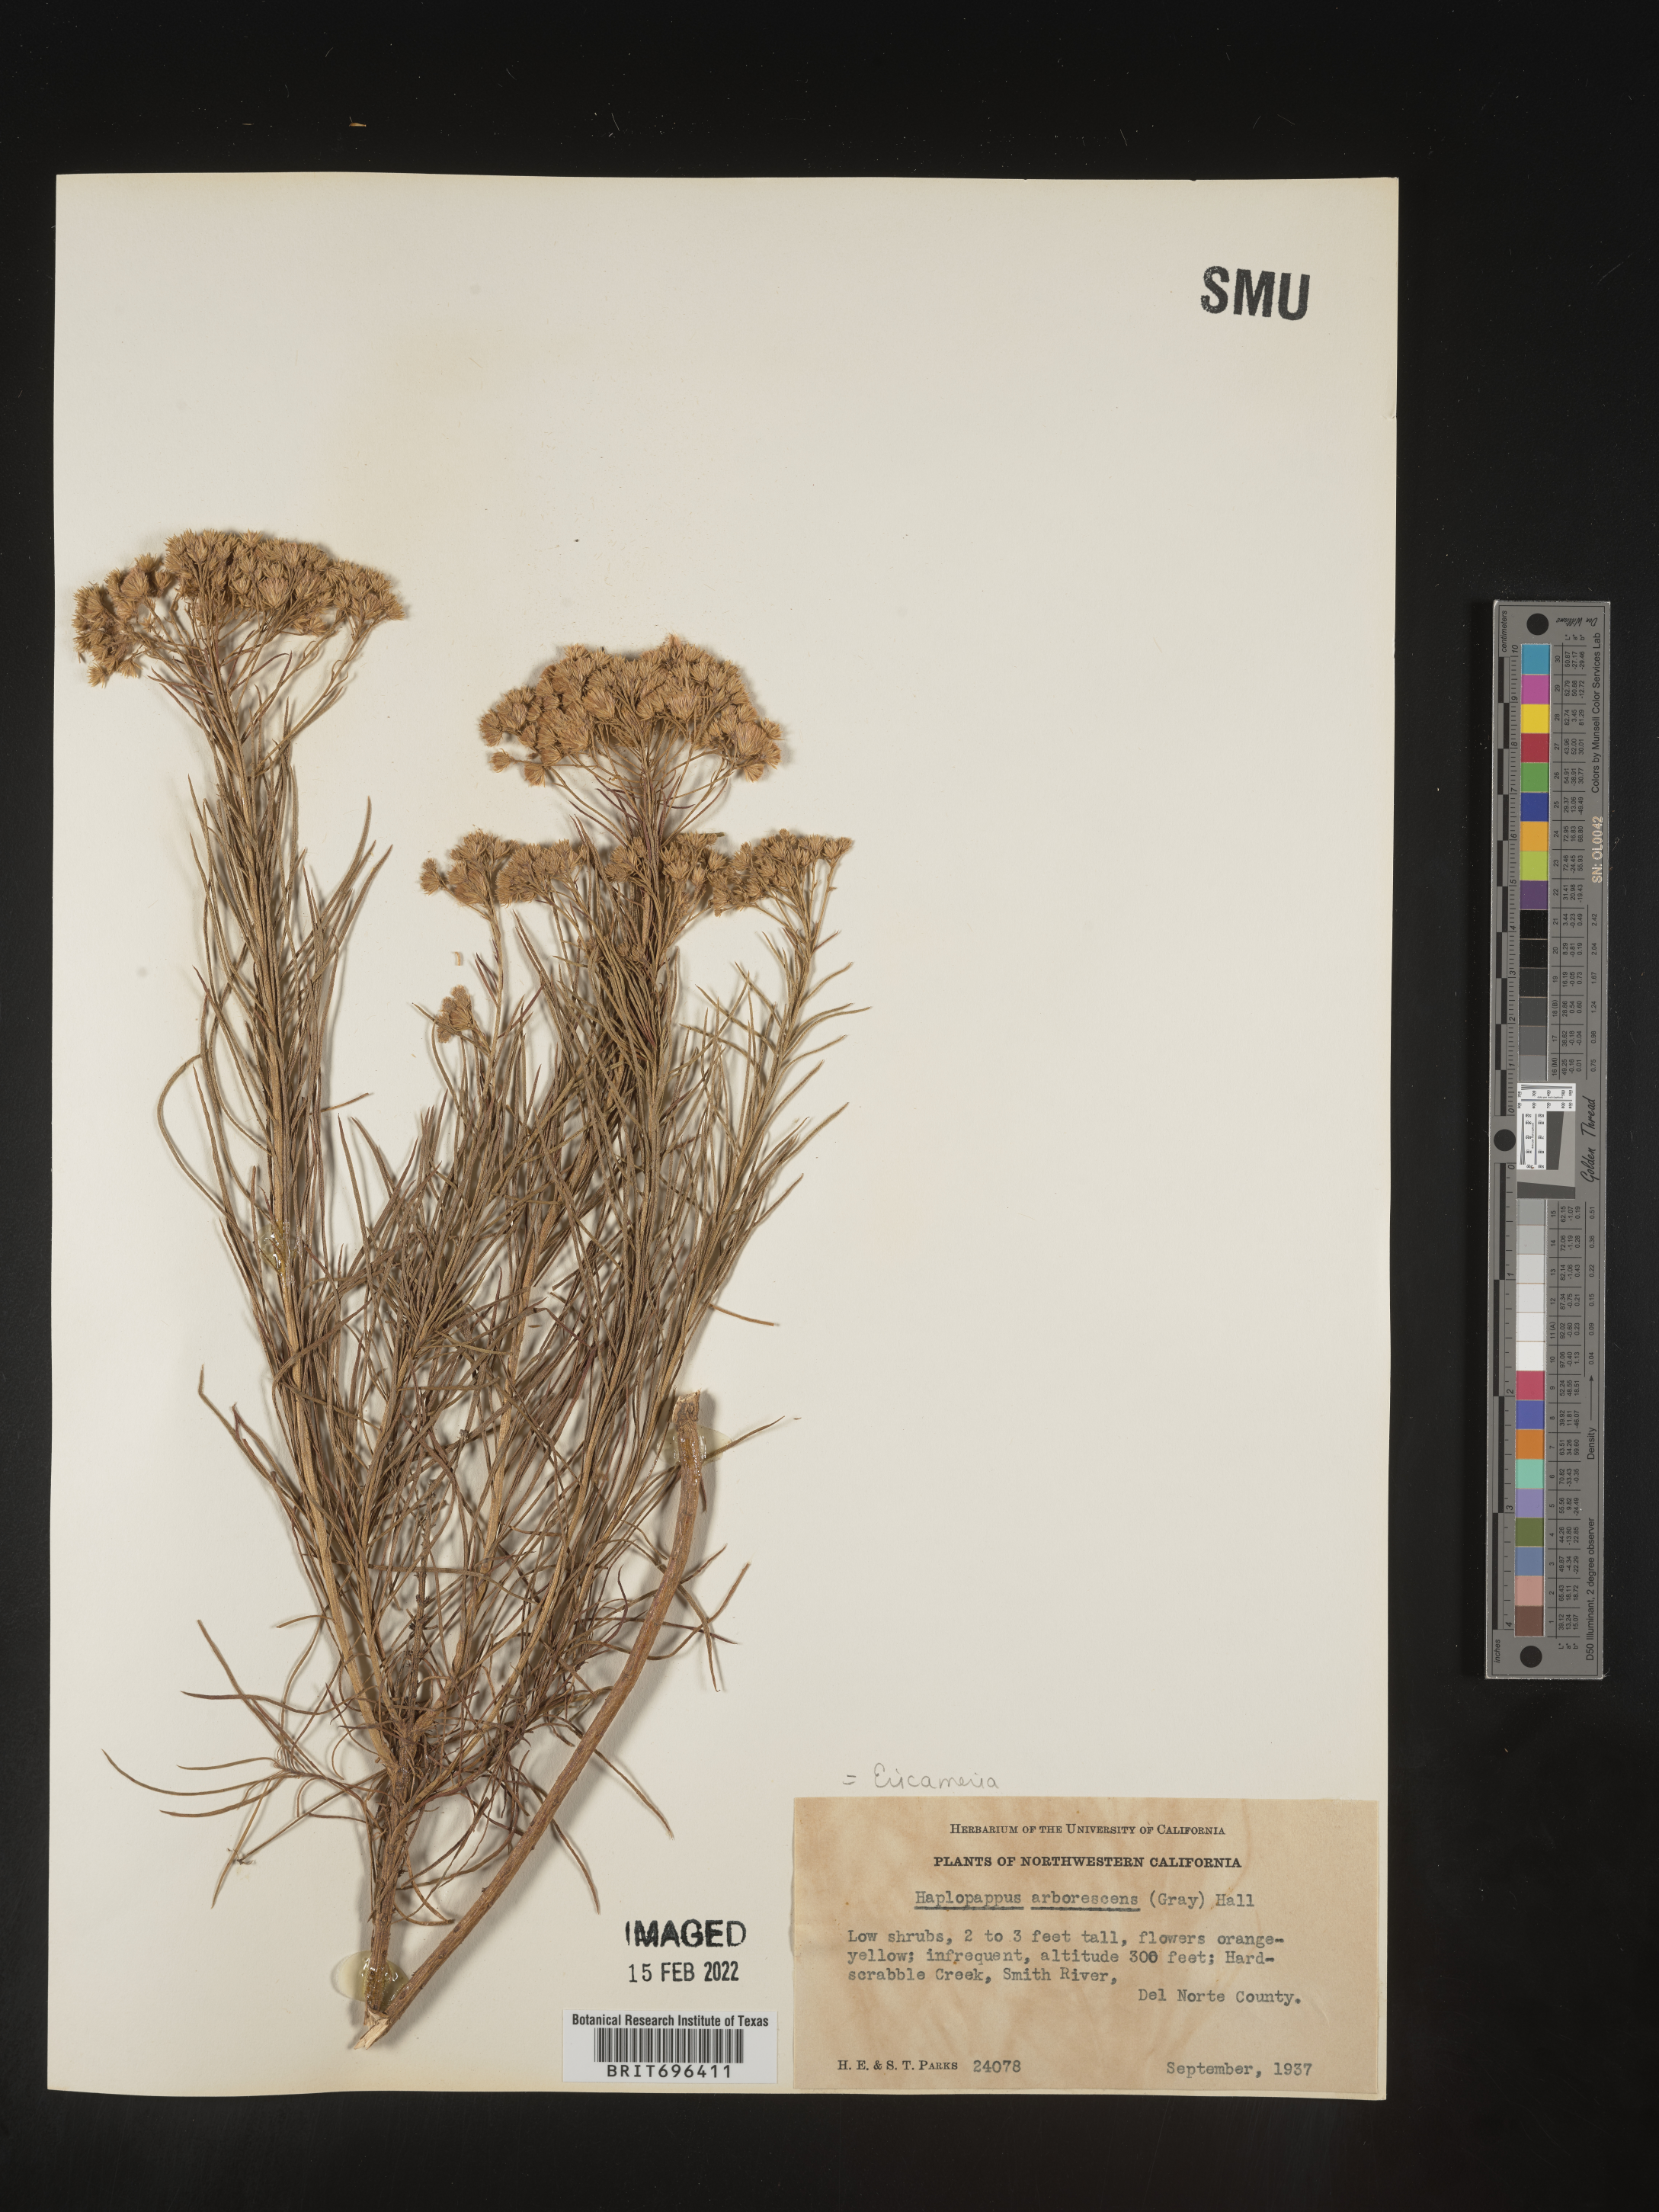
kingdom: Plantae
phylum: Tracheophyta
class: Magnoliopsida
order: Asterales
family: Asteraceae
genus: Ericameria
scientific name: Ericameria arborescens
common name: Goldenfleece
